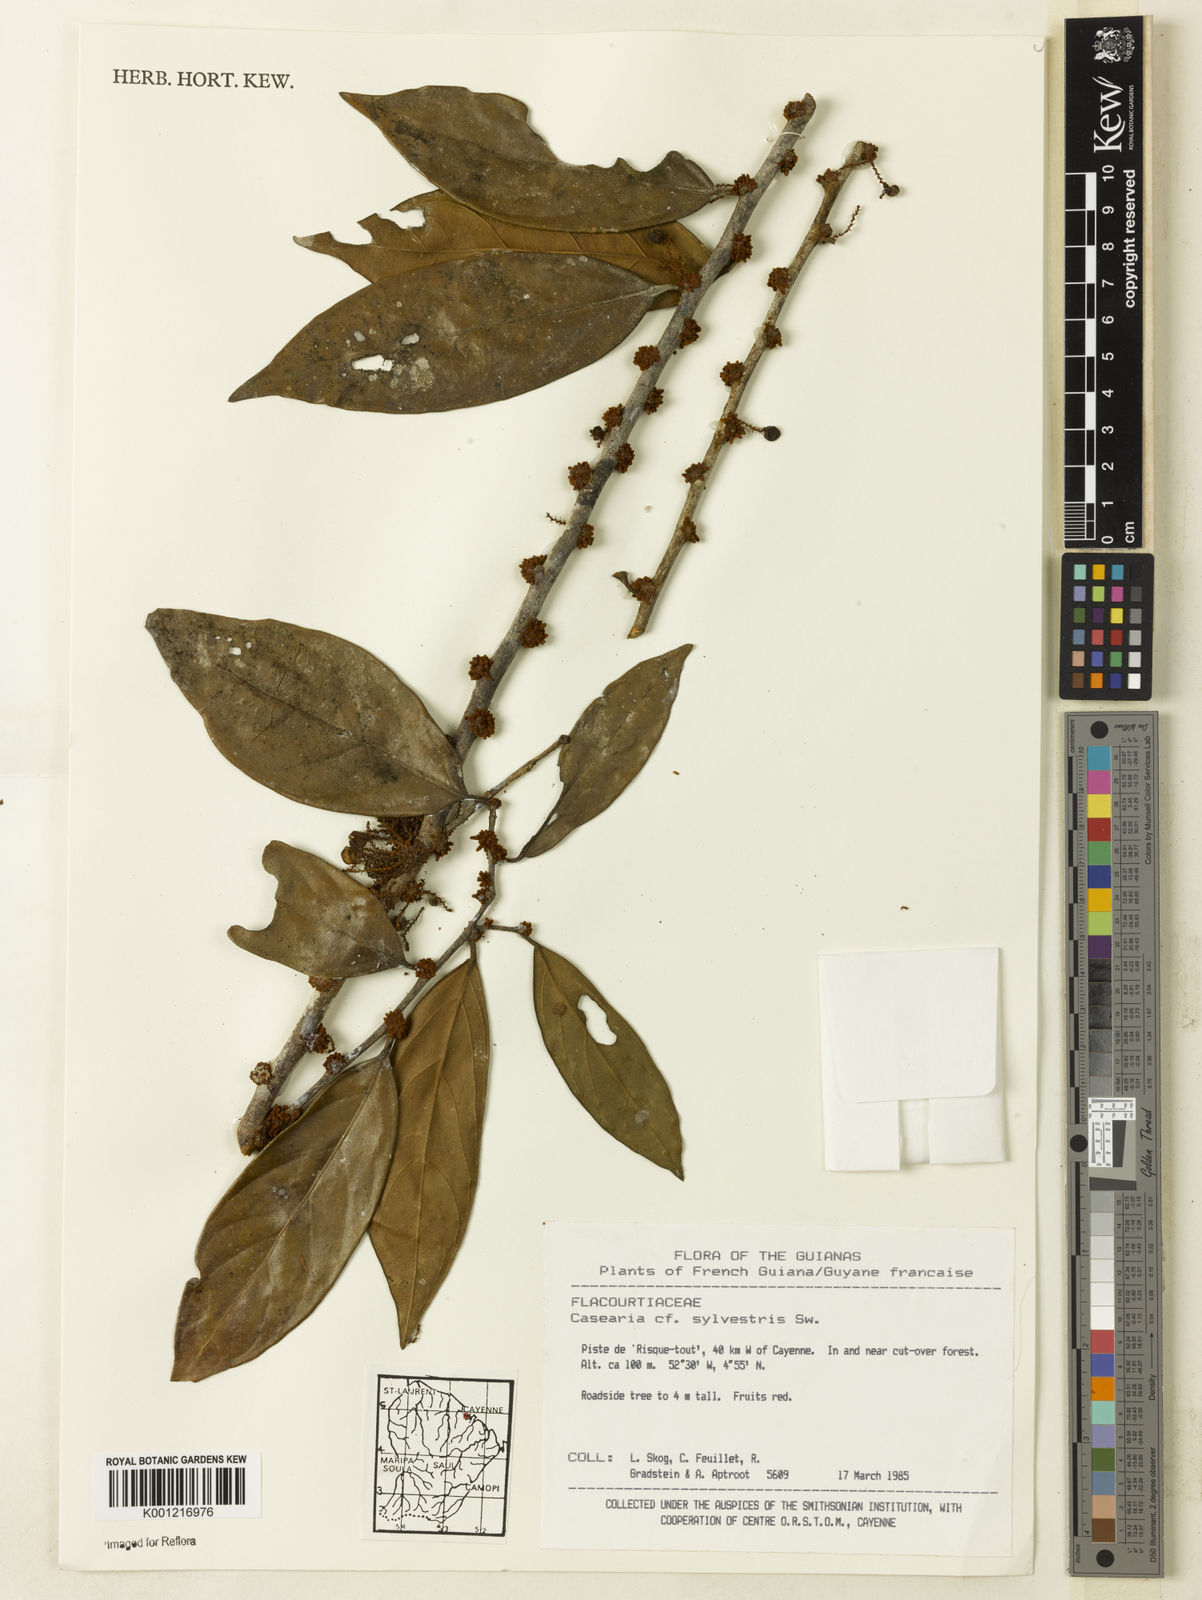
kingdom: Plantae
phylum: Tracheophyta
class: Magnoliopsida
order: Malpighiales
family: Salicaceae
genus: Casearia
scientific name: Casearia sylvestris
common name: Wild sage
